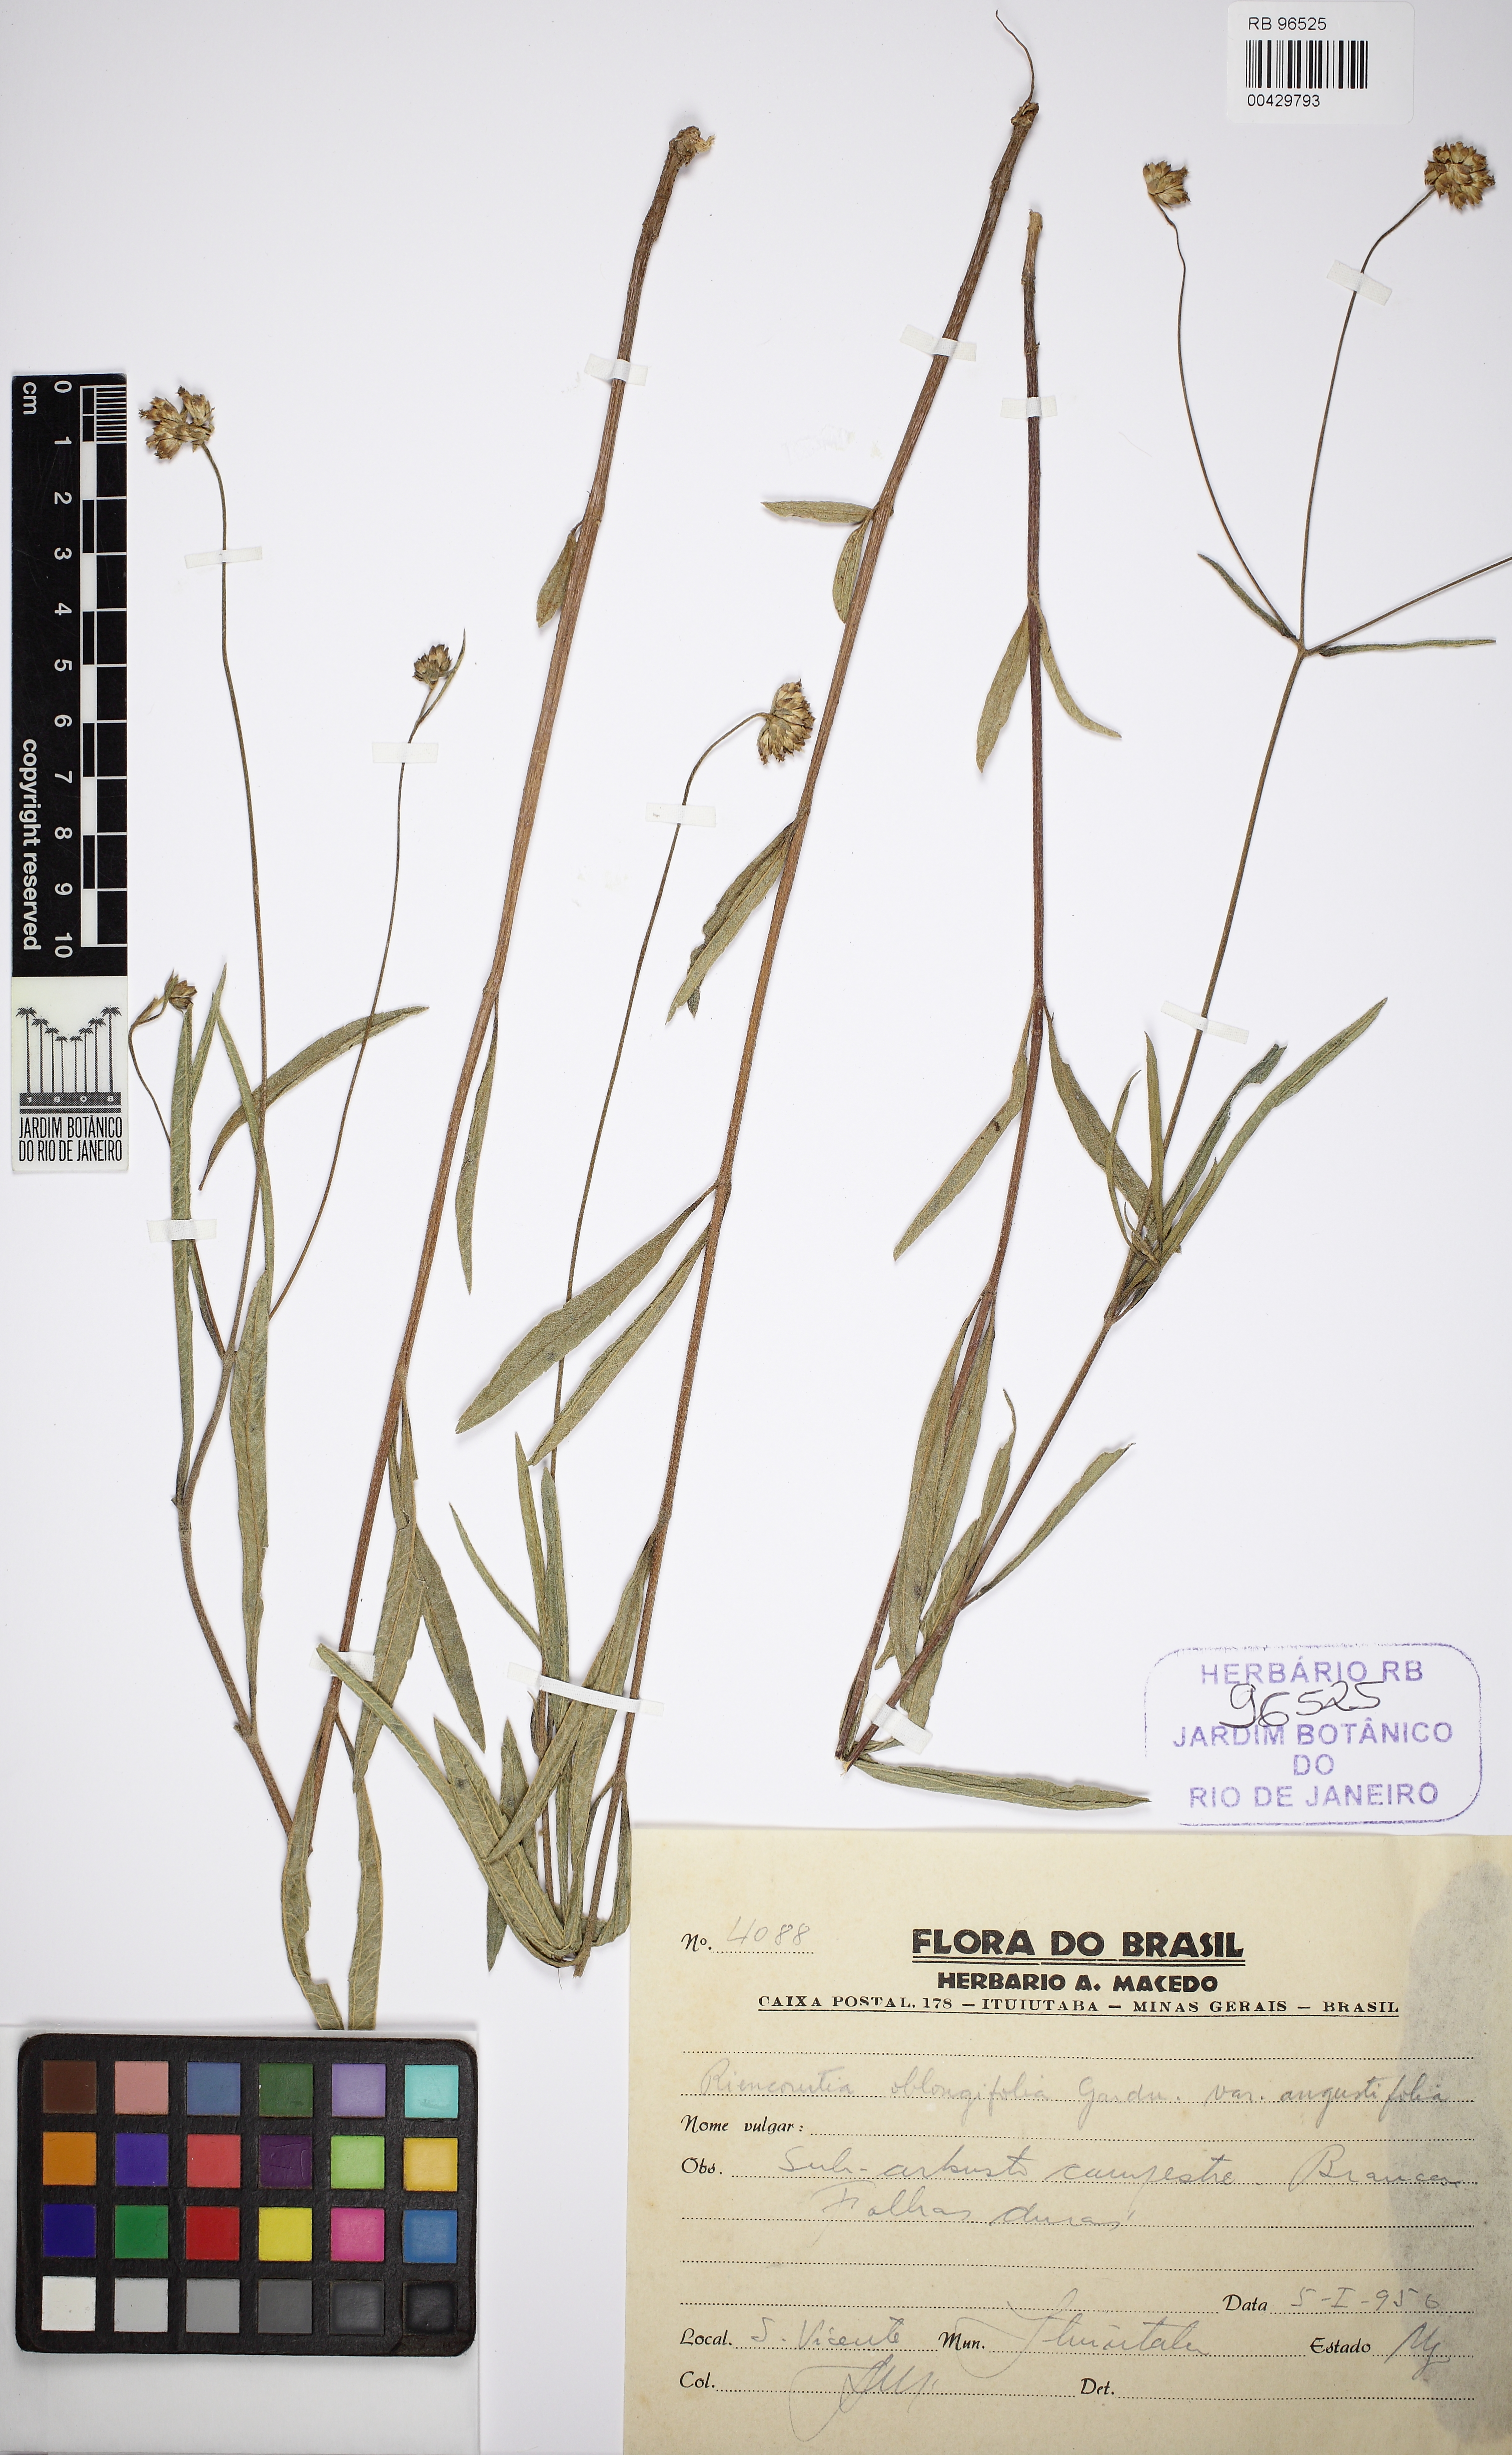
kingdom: Plantae
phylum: Tracheophyta
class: Magnoliopsida
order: Asterales
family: Asteraceae
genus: Riencourtia
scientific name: Riencourtia oblongifolia
